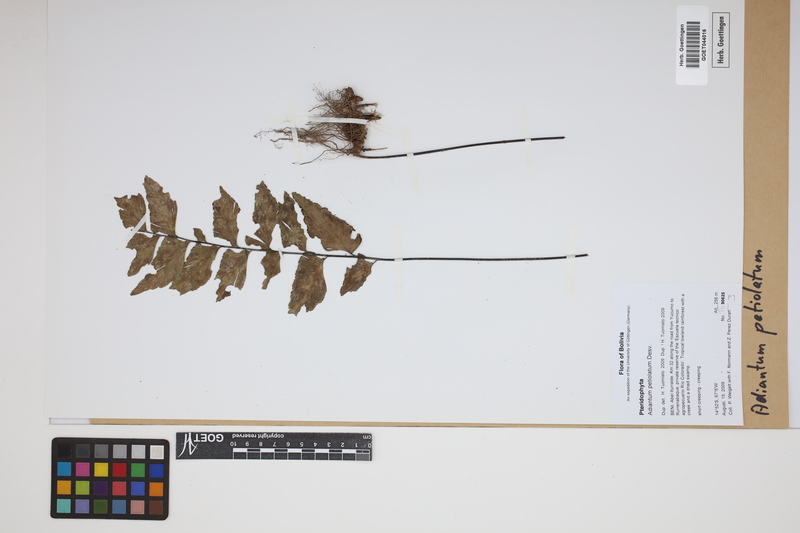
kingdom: Plantae
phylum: Tracheophyta
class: Polypodiopsida
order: Polypodiales
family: Pteridaceae
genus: Adiantum
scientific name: Adiantum petiolatum
